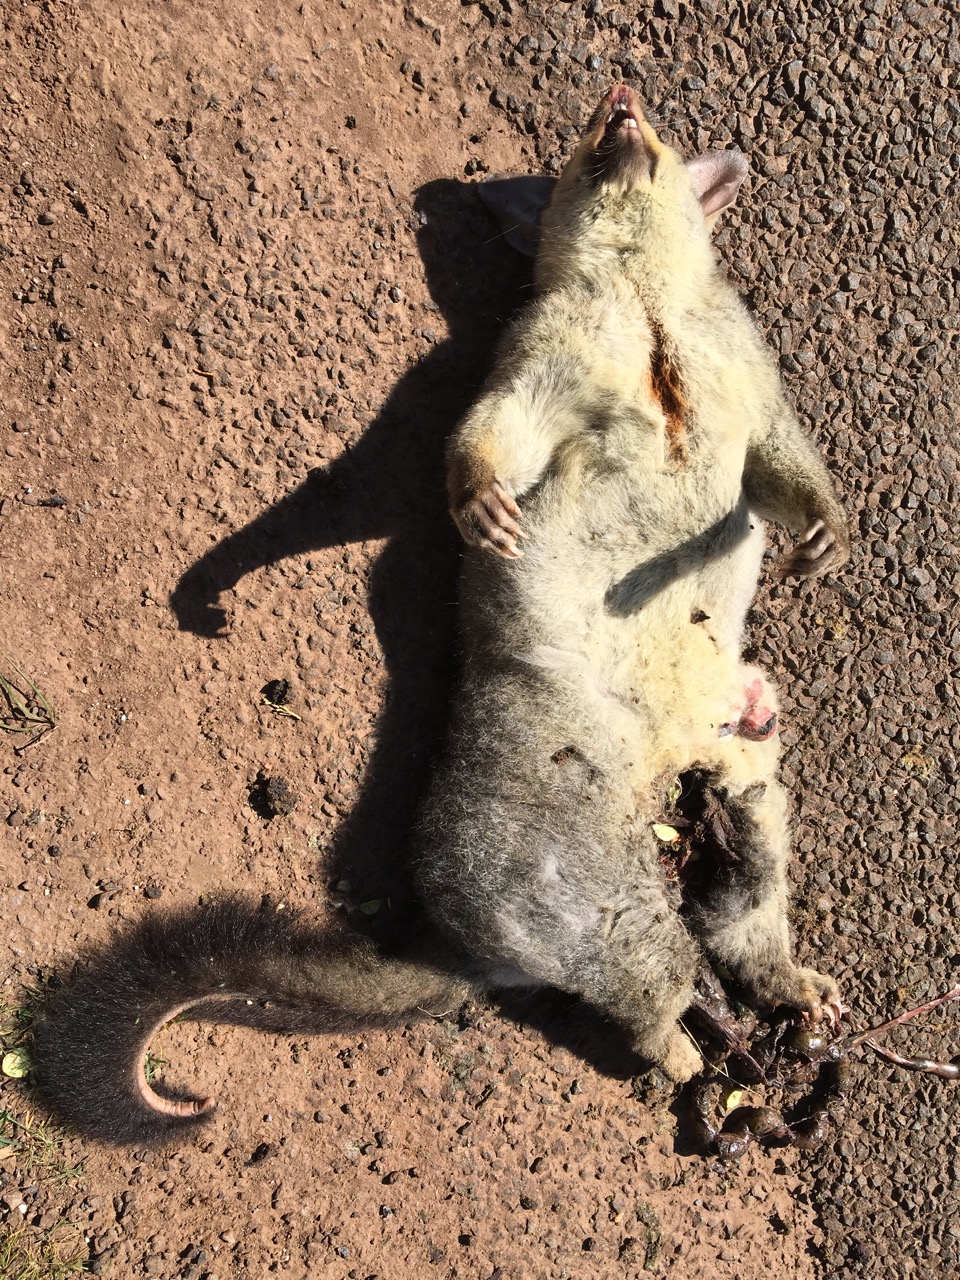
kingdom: Animalia
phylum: Chordata
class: Mammalia
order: Diprotodontia
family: Phalangeridae
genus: Trichosurus
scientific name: Trichosurus vulpecula
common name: Common brushtail
